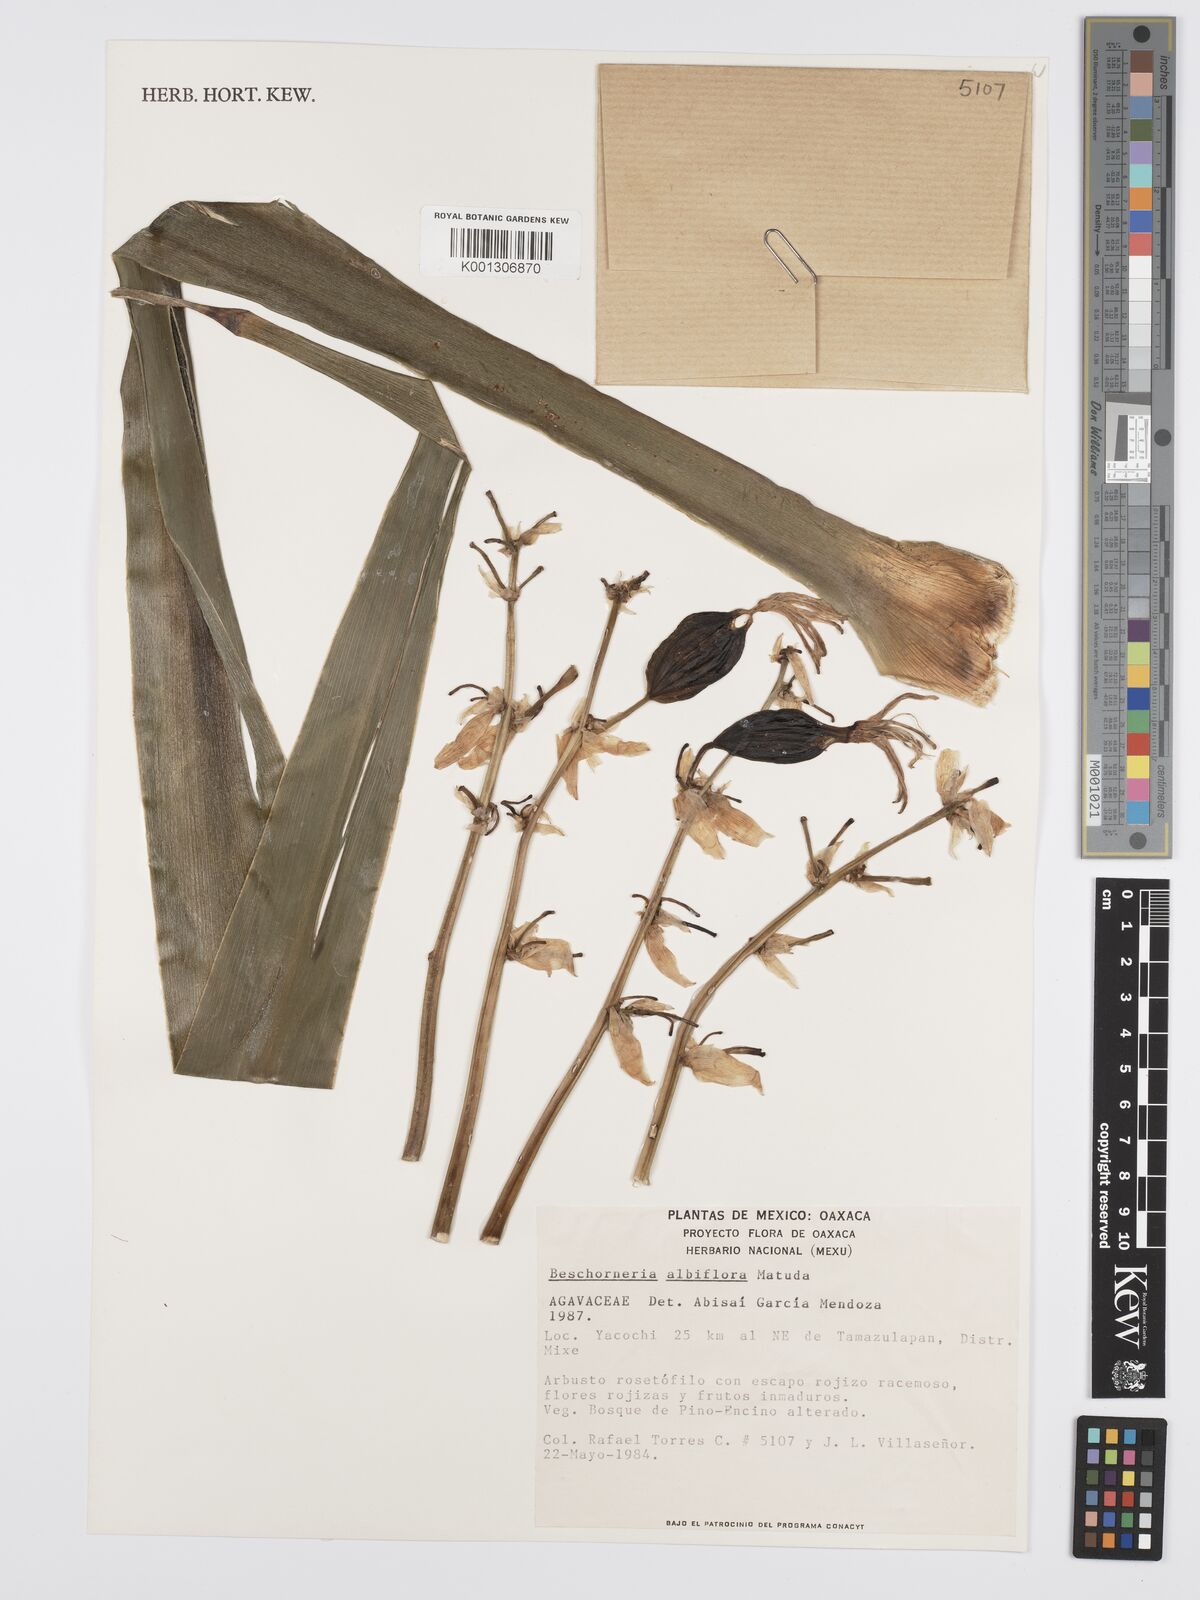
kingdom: Plantae
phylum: Tracheophyta
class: Liliopsida
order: Asparagales
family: Asparagaceae
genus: Beschorneria
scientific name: Beschorneria albiflora
